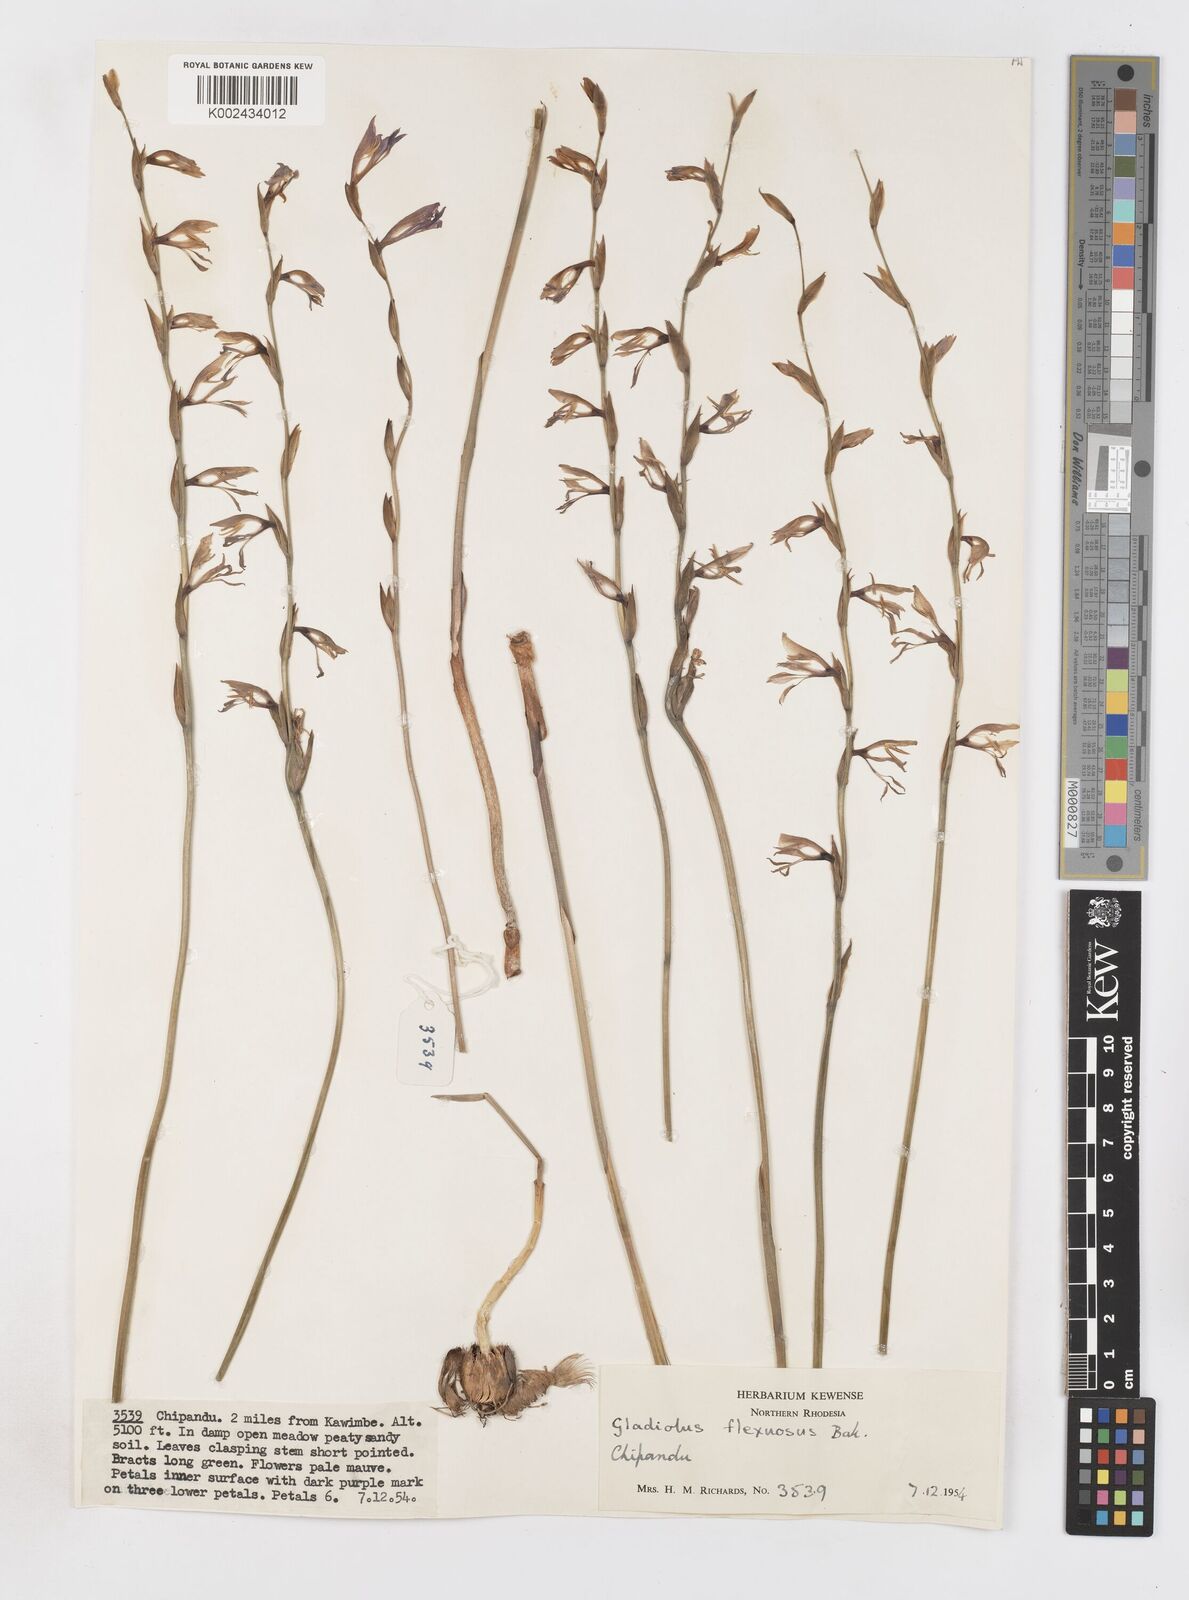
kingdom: Plantae
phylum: Tracheophyta
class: Liliopsida
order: Asparagales
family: Iridaceae
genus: Gladiolus
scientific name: Gladiolus atropurpureus
